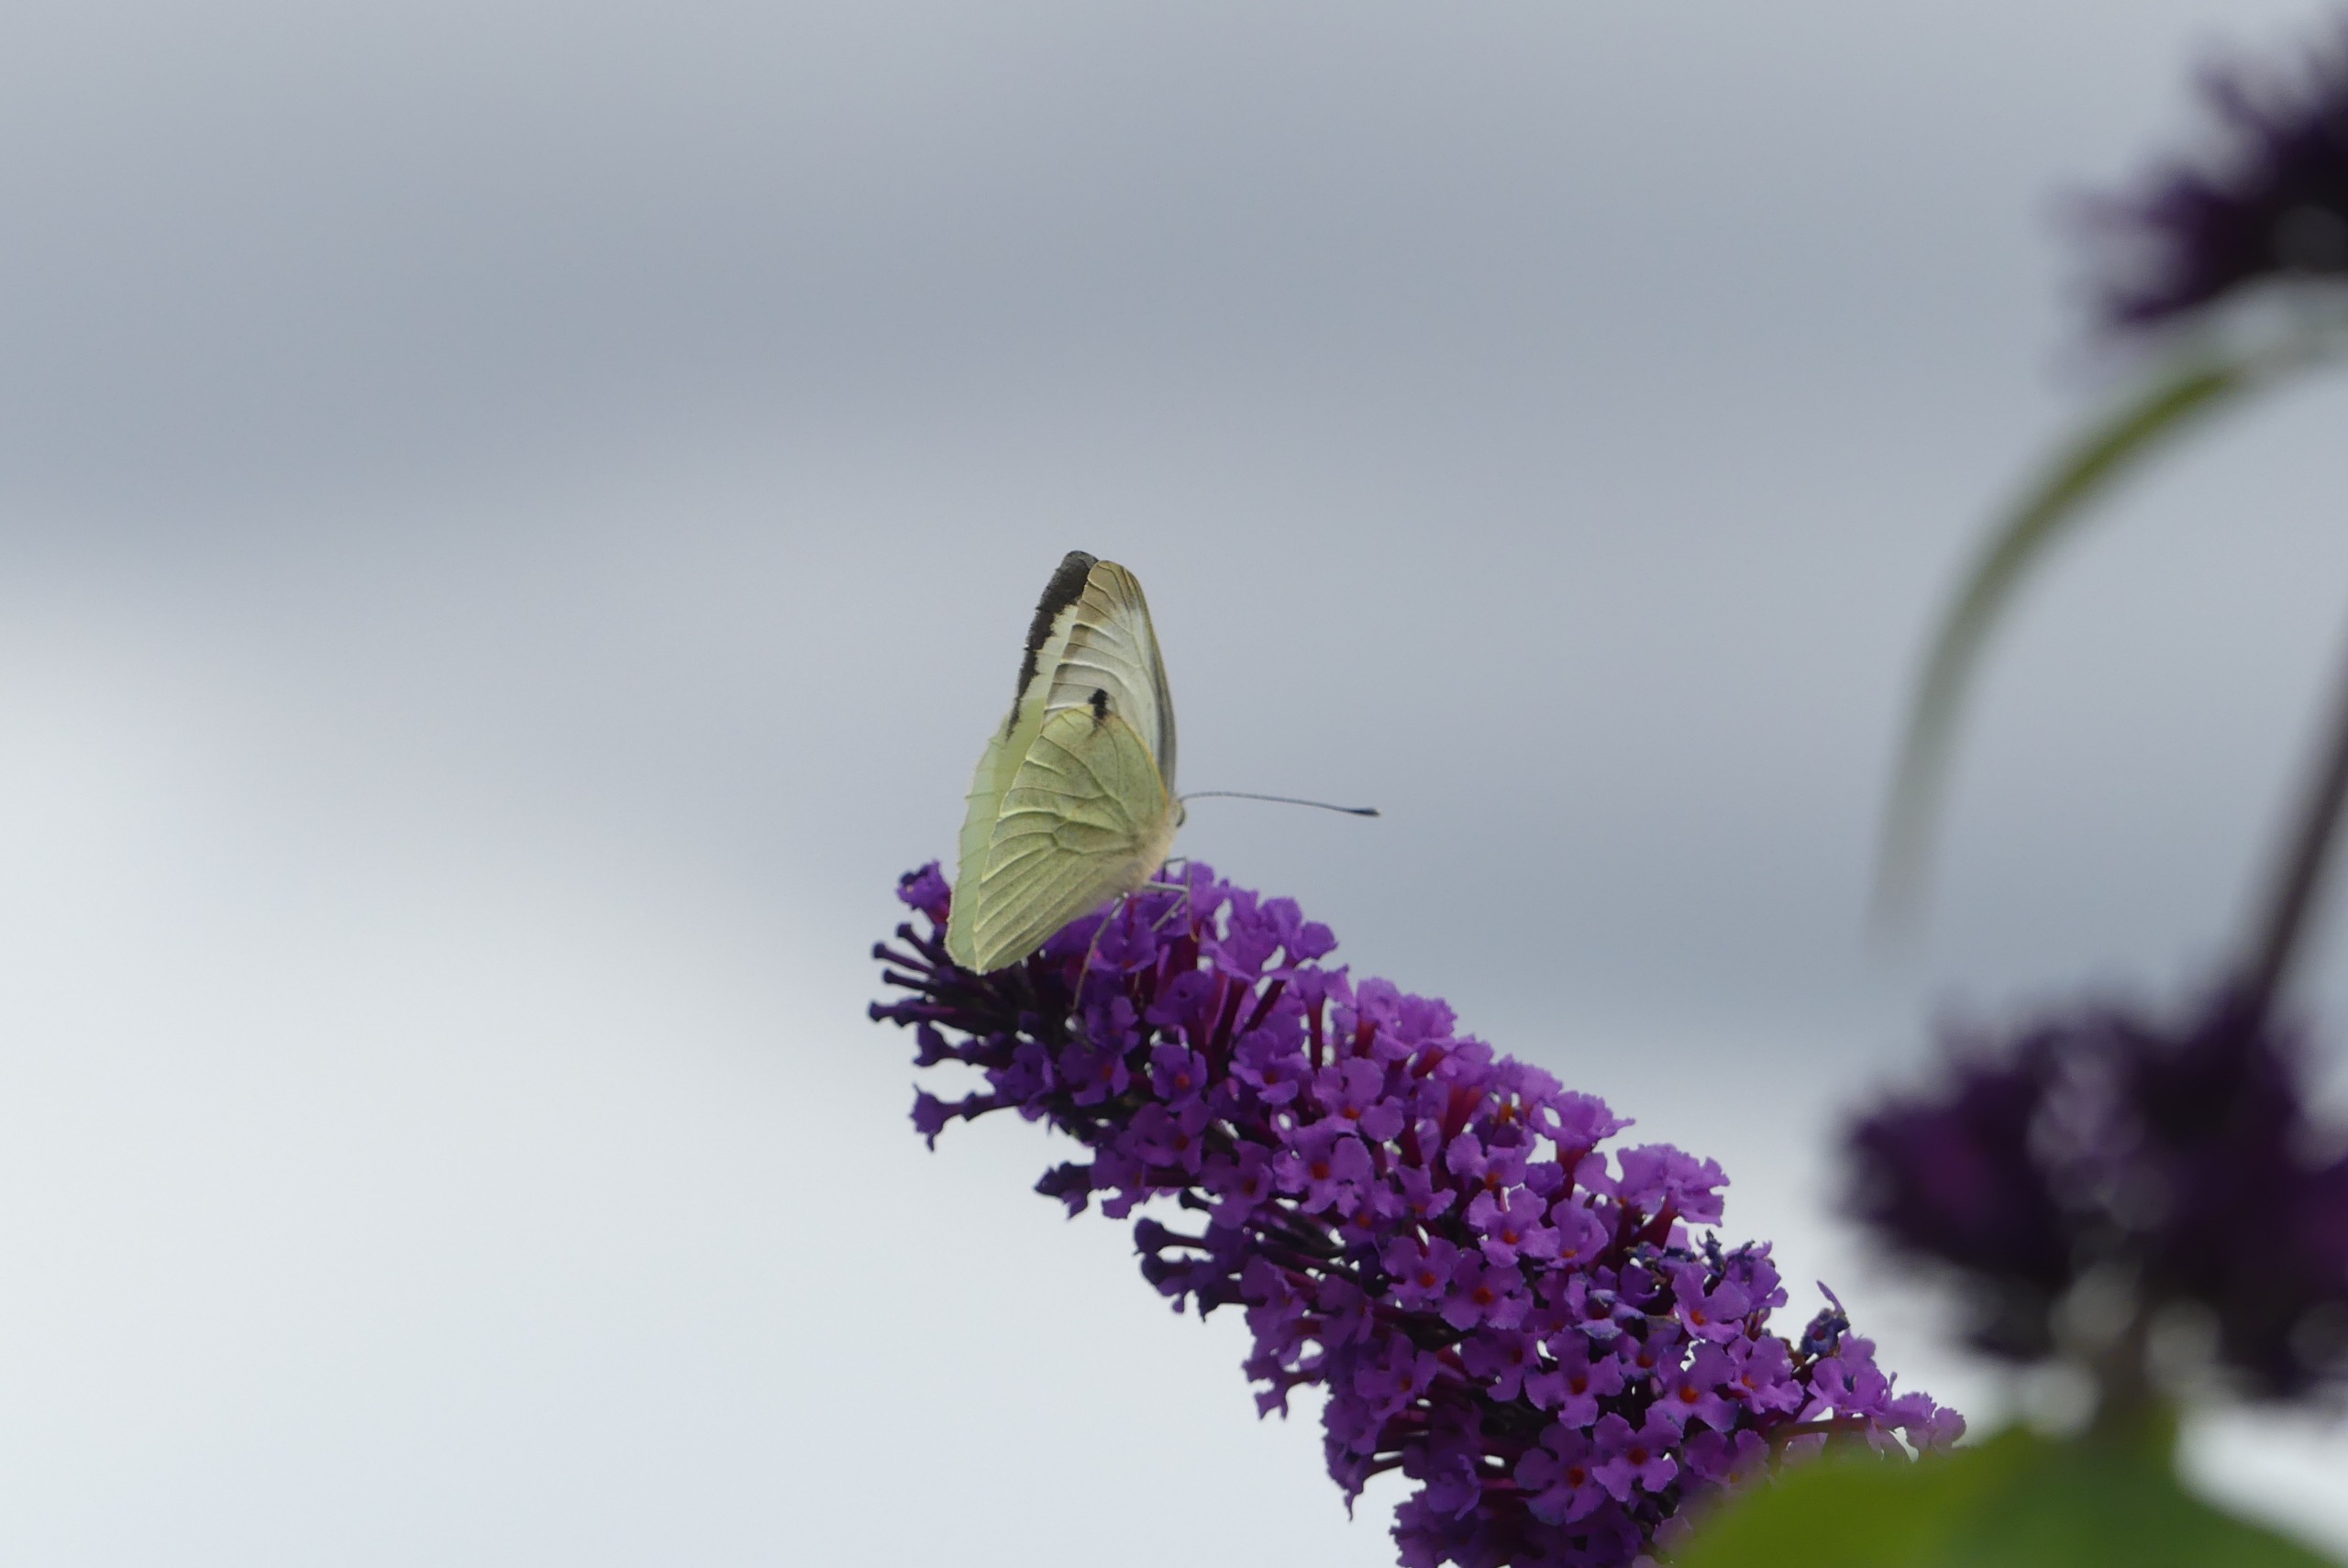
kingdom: Animalia
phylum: Arthropoda
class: Insecta
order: Lepidoptera
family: Pieridae
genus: Pieris
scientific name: Pieris brassicae
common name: Stor kålsommerfugl
